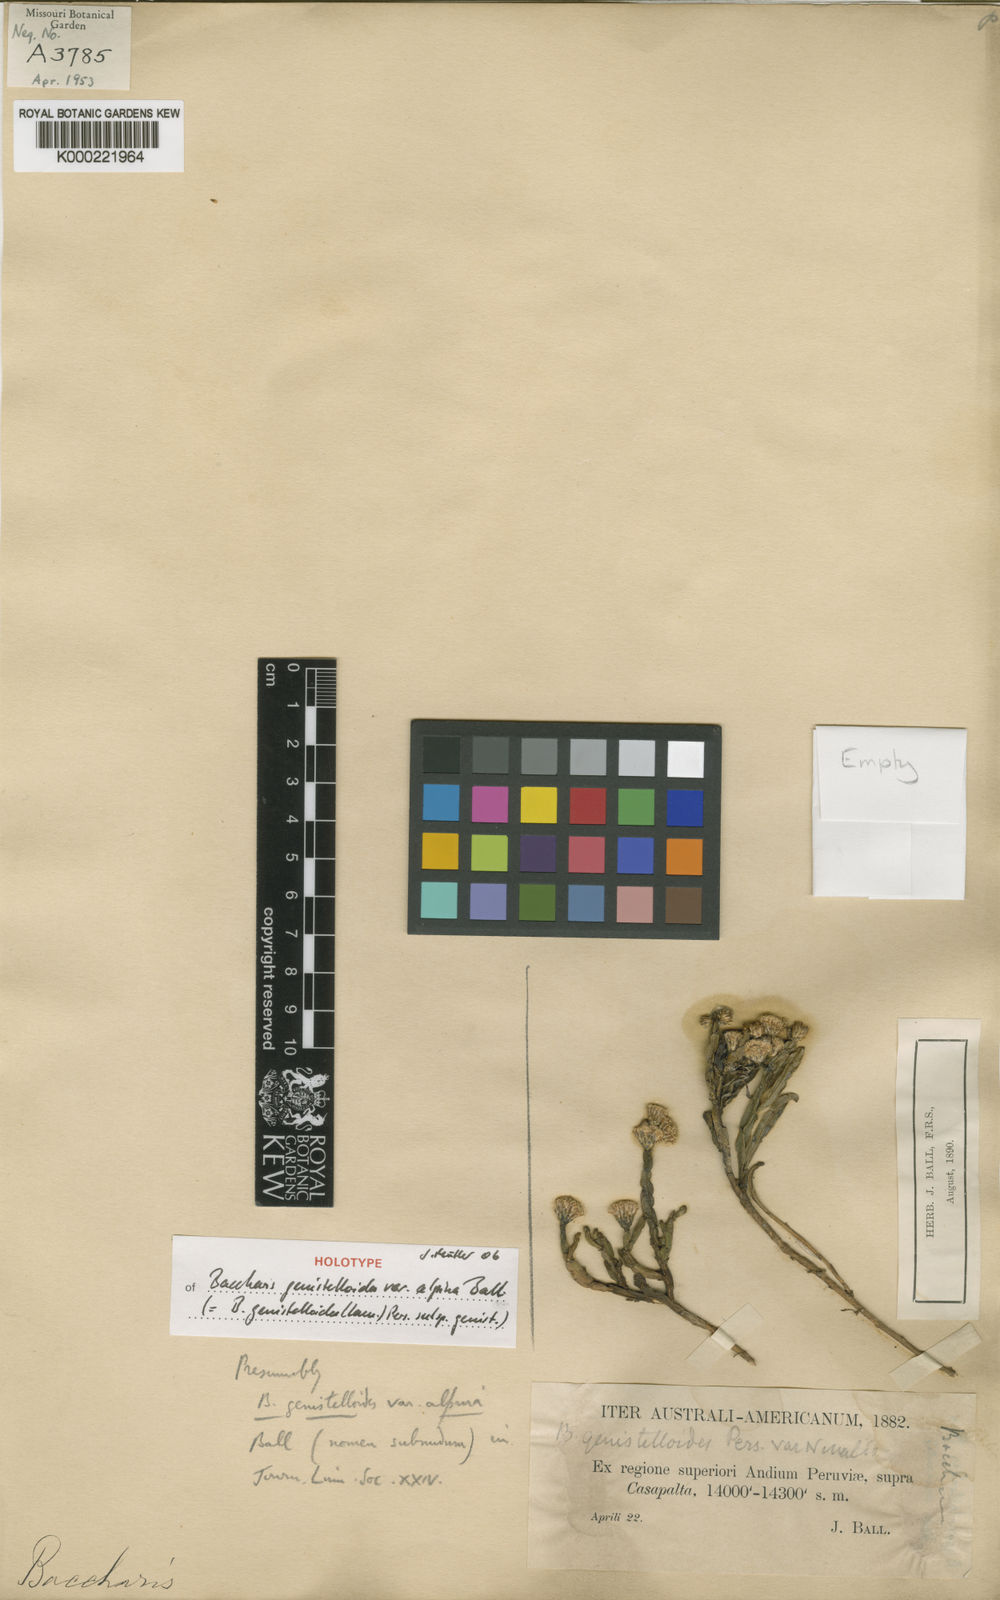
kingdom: Plantae
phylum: Tracheophyta
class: Magnoliopsida
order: Asterales
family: Asteraceae
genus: Baccharis
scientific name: Baccharis genistelloides
